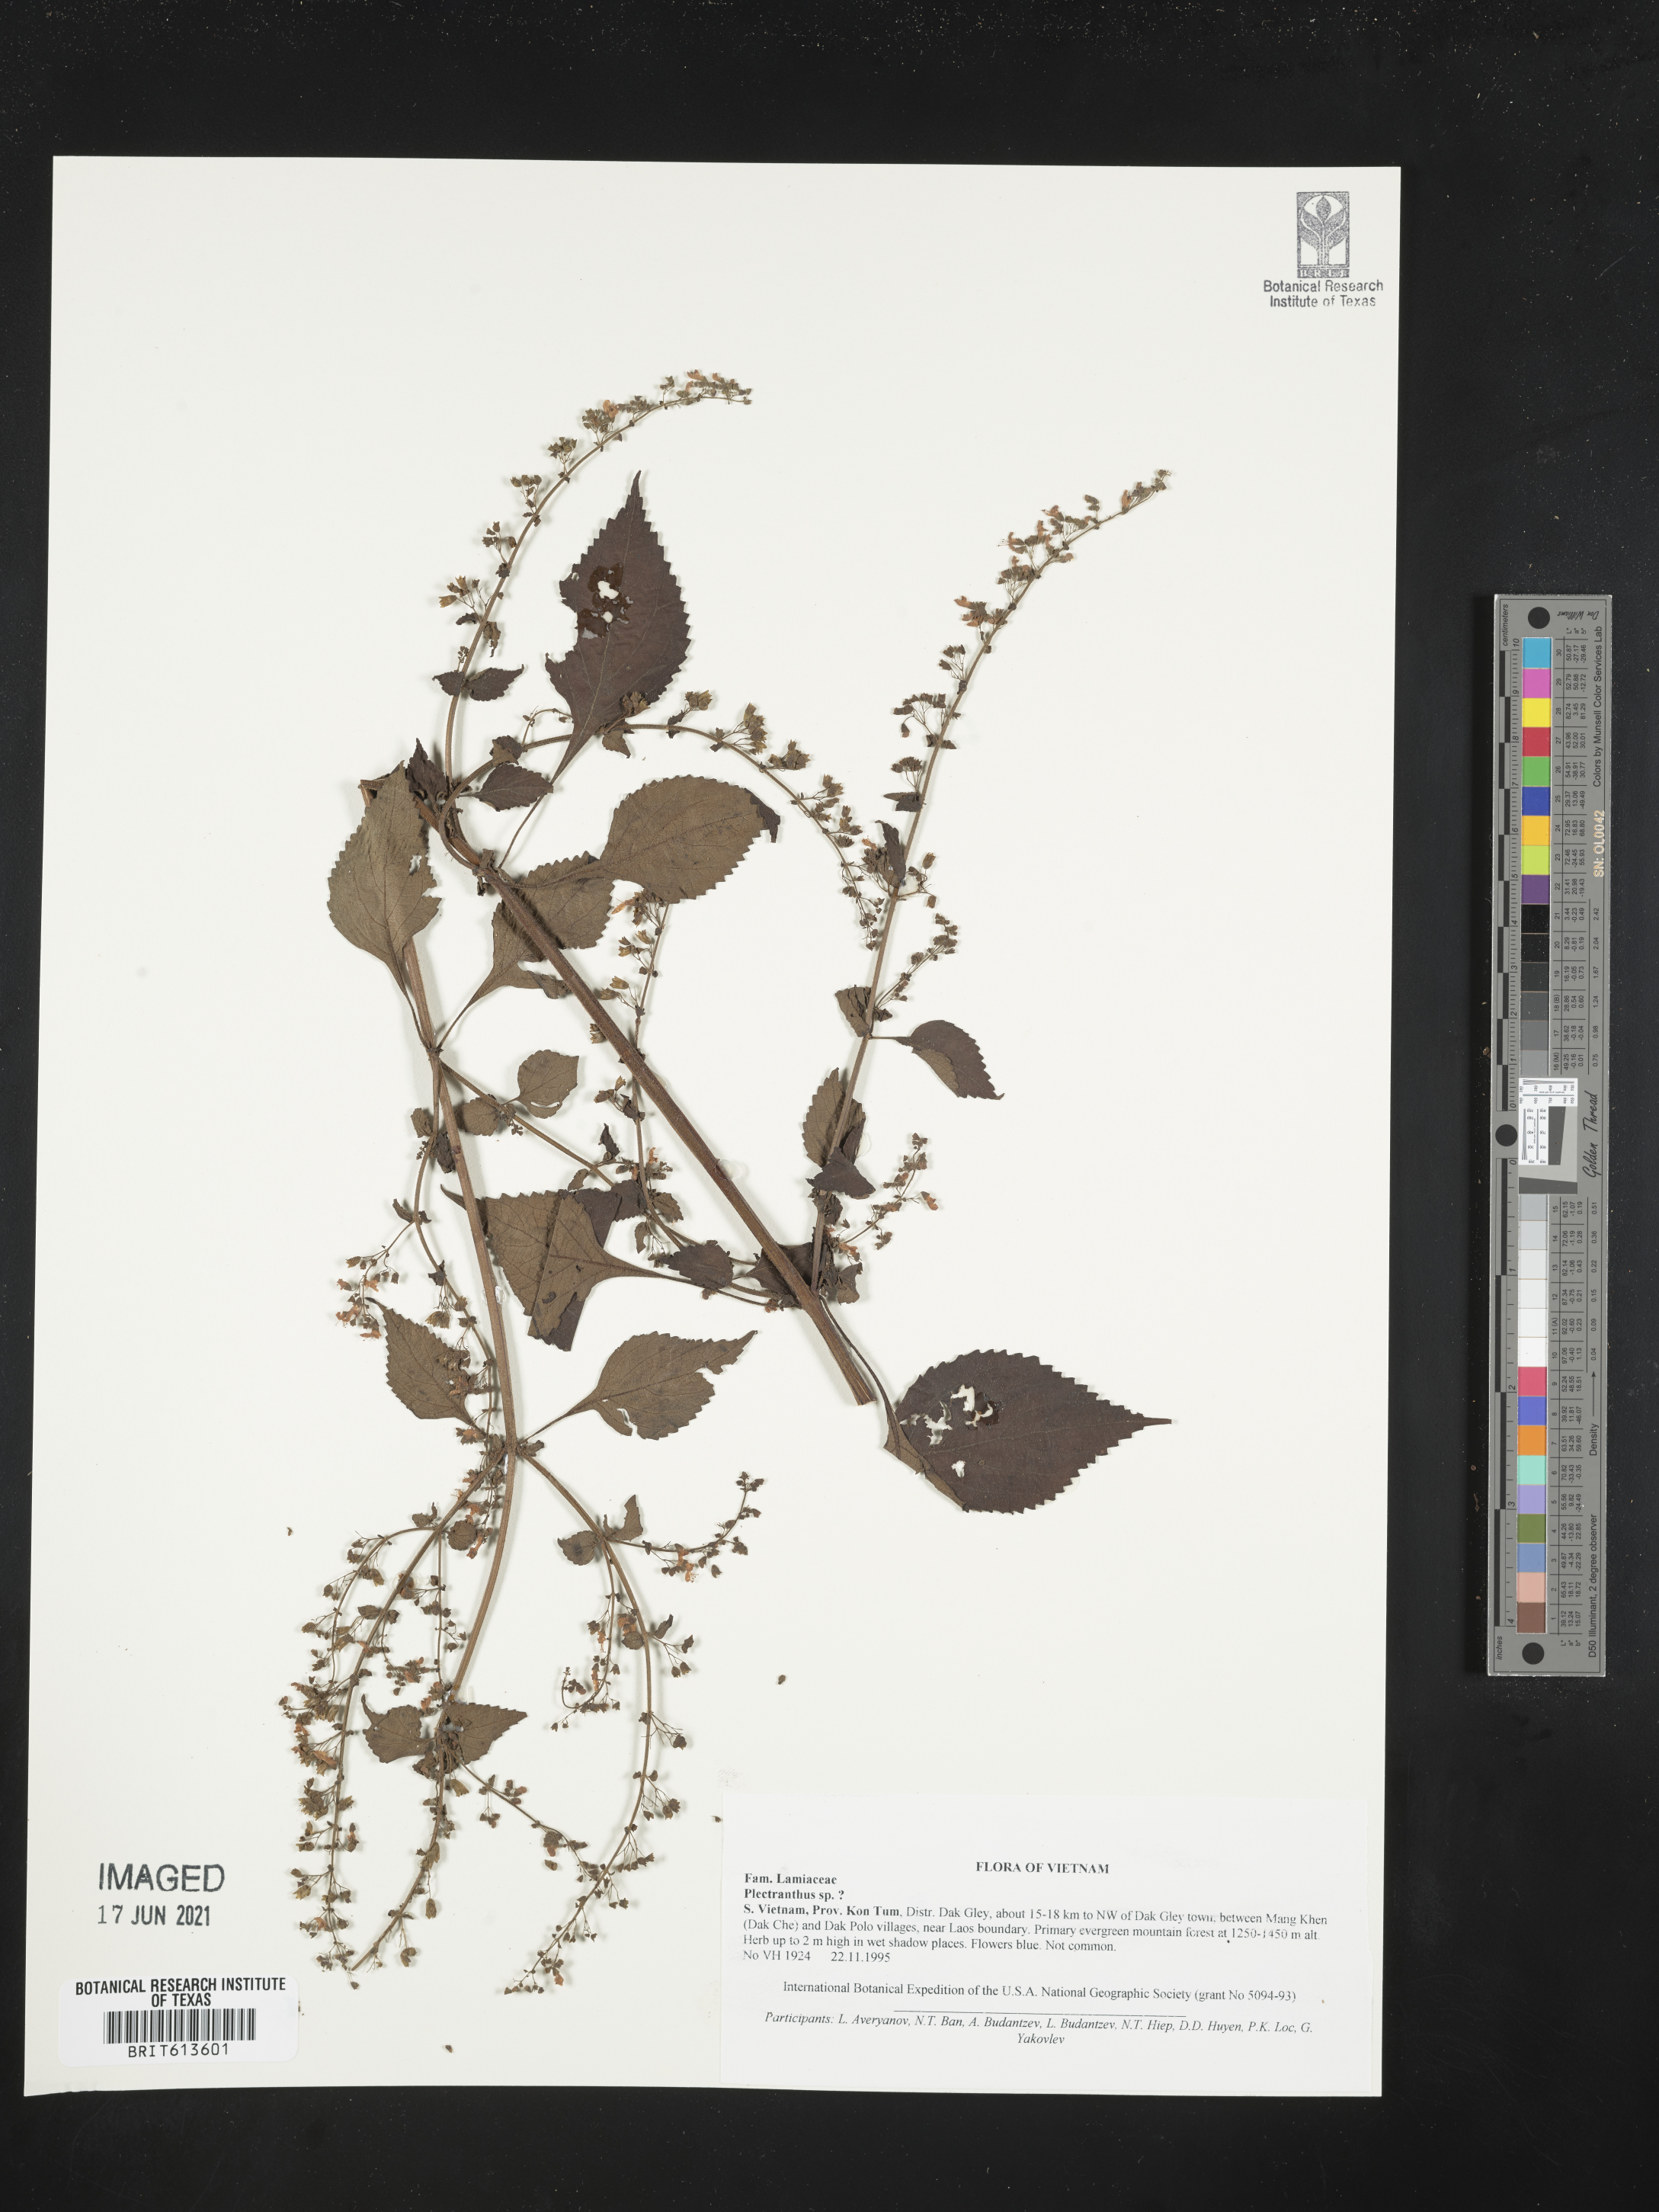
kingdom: Plantae
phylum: Tracheophyta
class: Magnoliopsida
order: Lamiales
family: Lamiaceae
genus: Plectranthus
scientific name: Plectranthus
